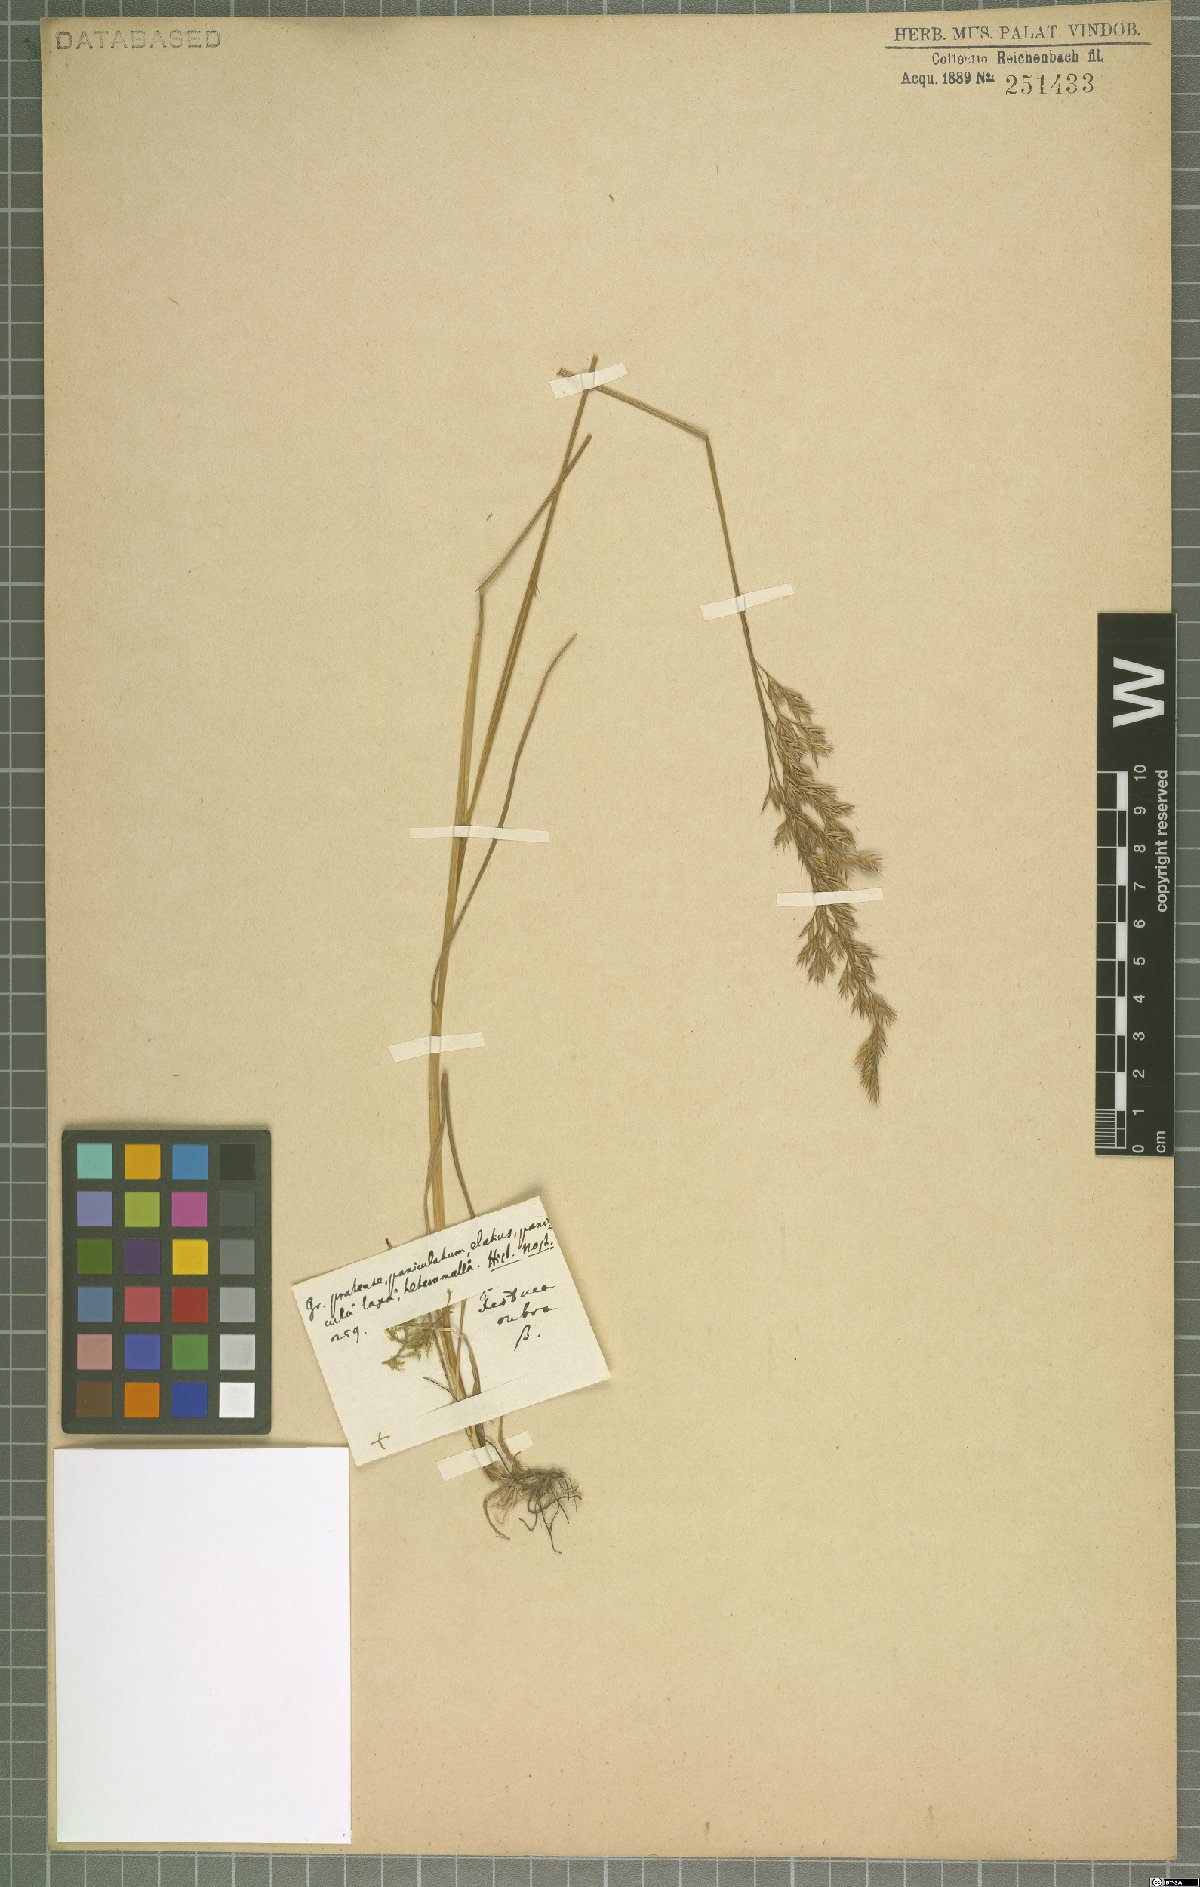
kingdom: Plantae
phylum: Tracheophyta
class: Liliopsida
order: Poales
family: Poaceae
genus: Festuca
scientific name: Festuca rubra
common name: Red fescue
